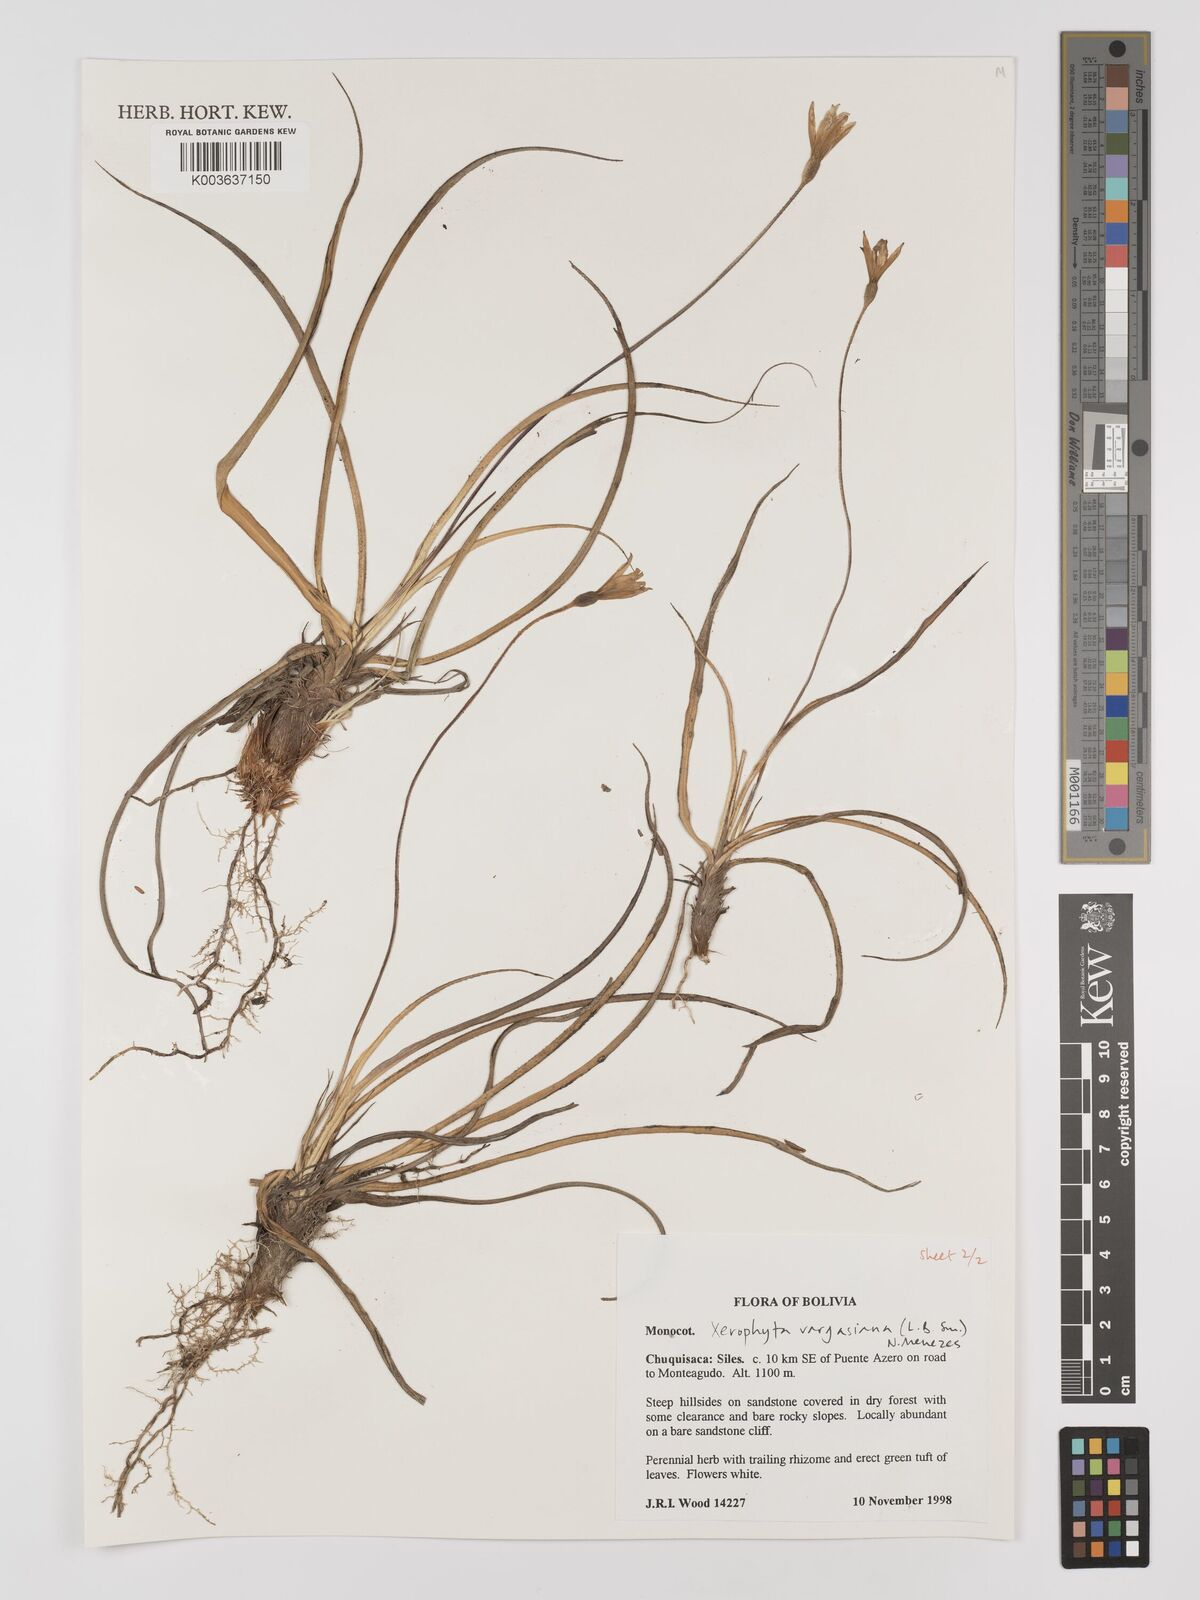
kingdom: Plantae
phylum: Tracheophyta
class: Liliopsida
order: Pandanales
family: Velloziaceae
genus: Barbaceniopsis
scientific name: Barbaceniopsis vargasiana
